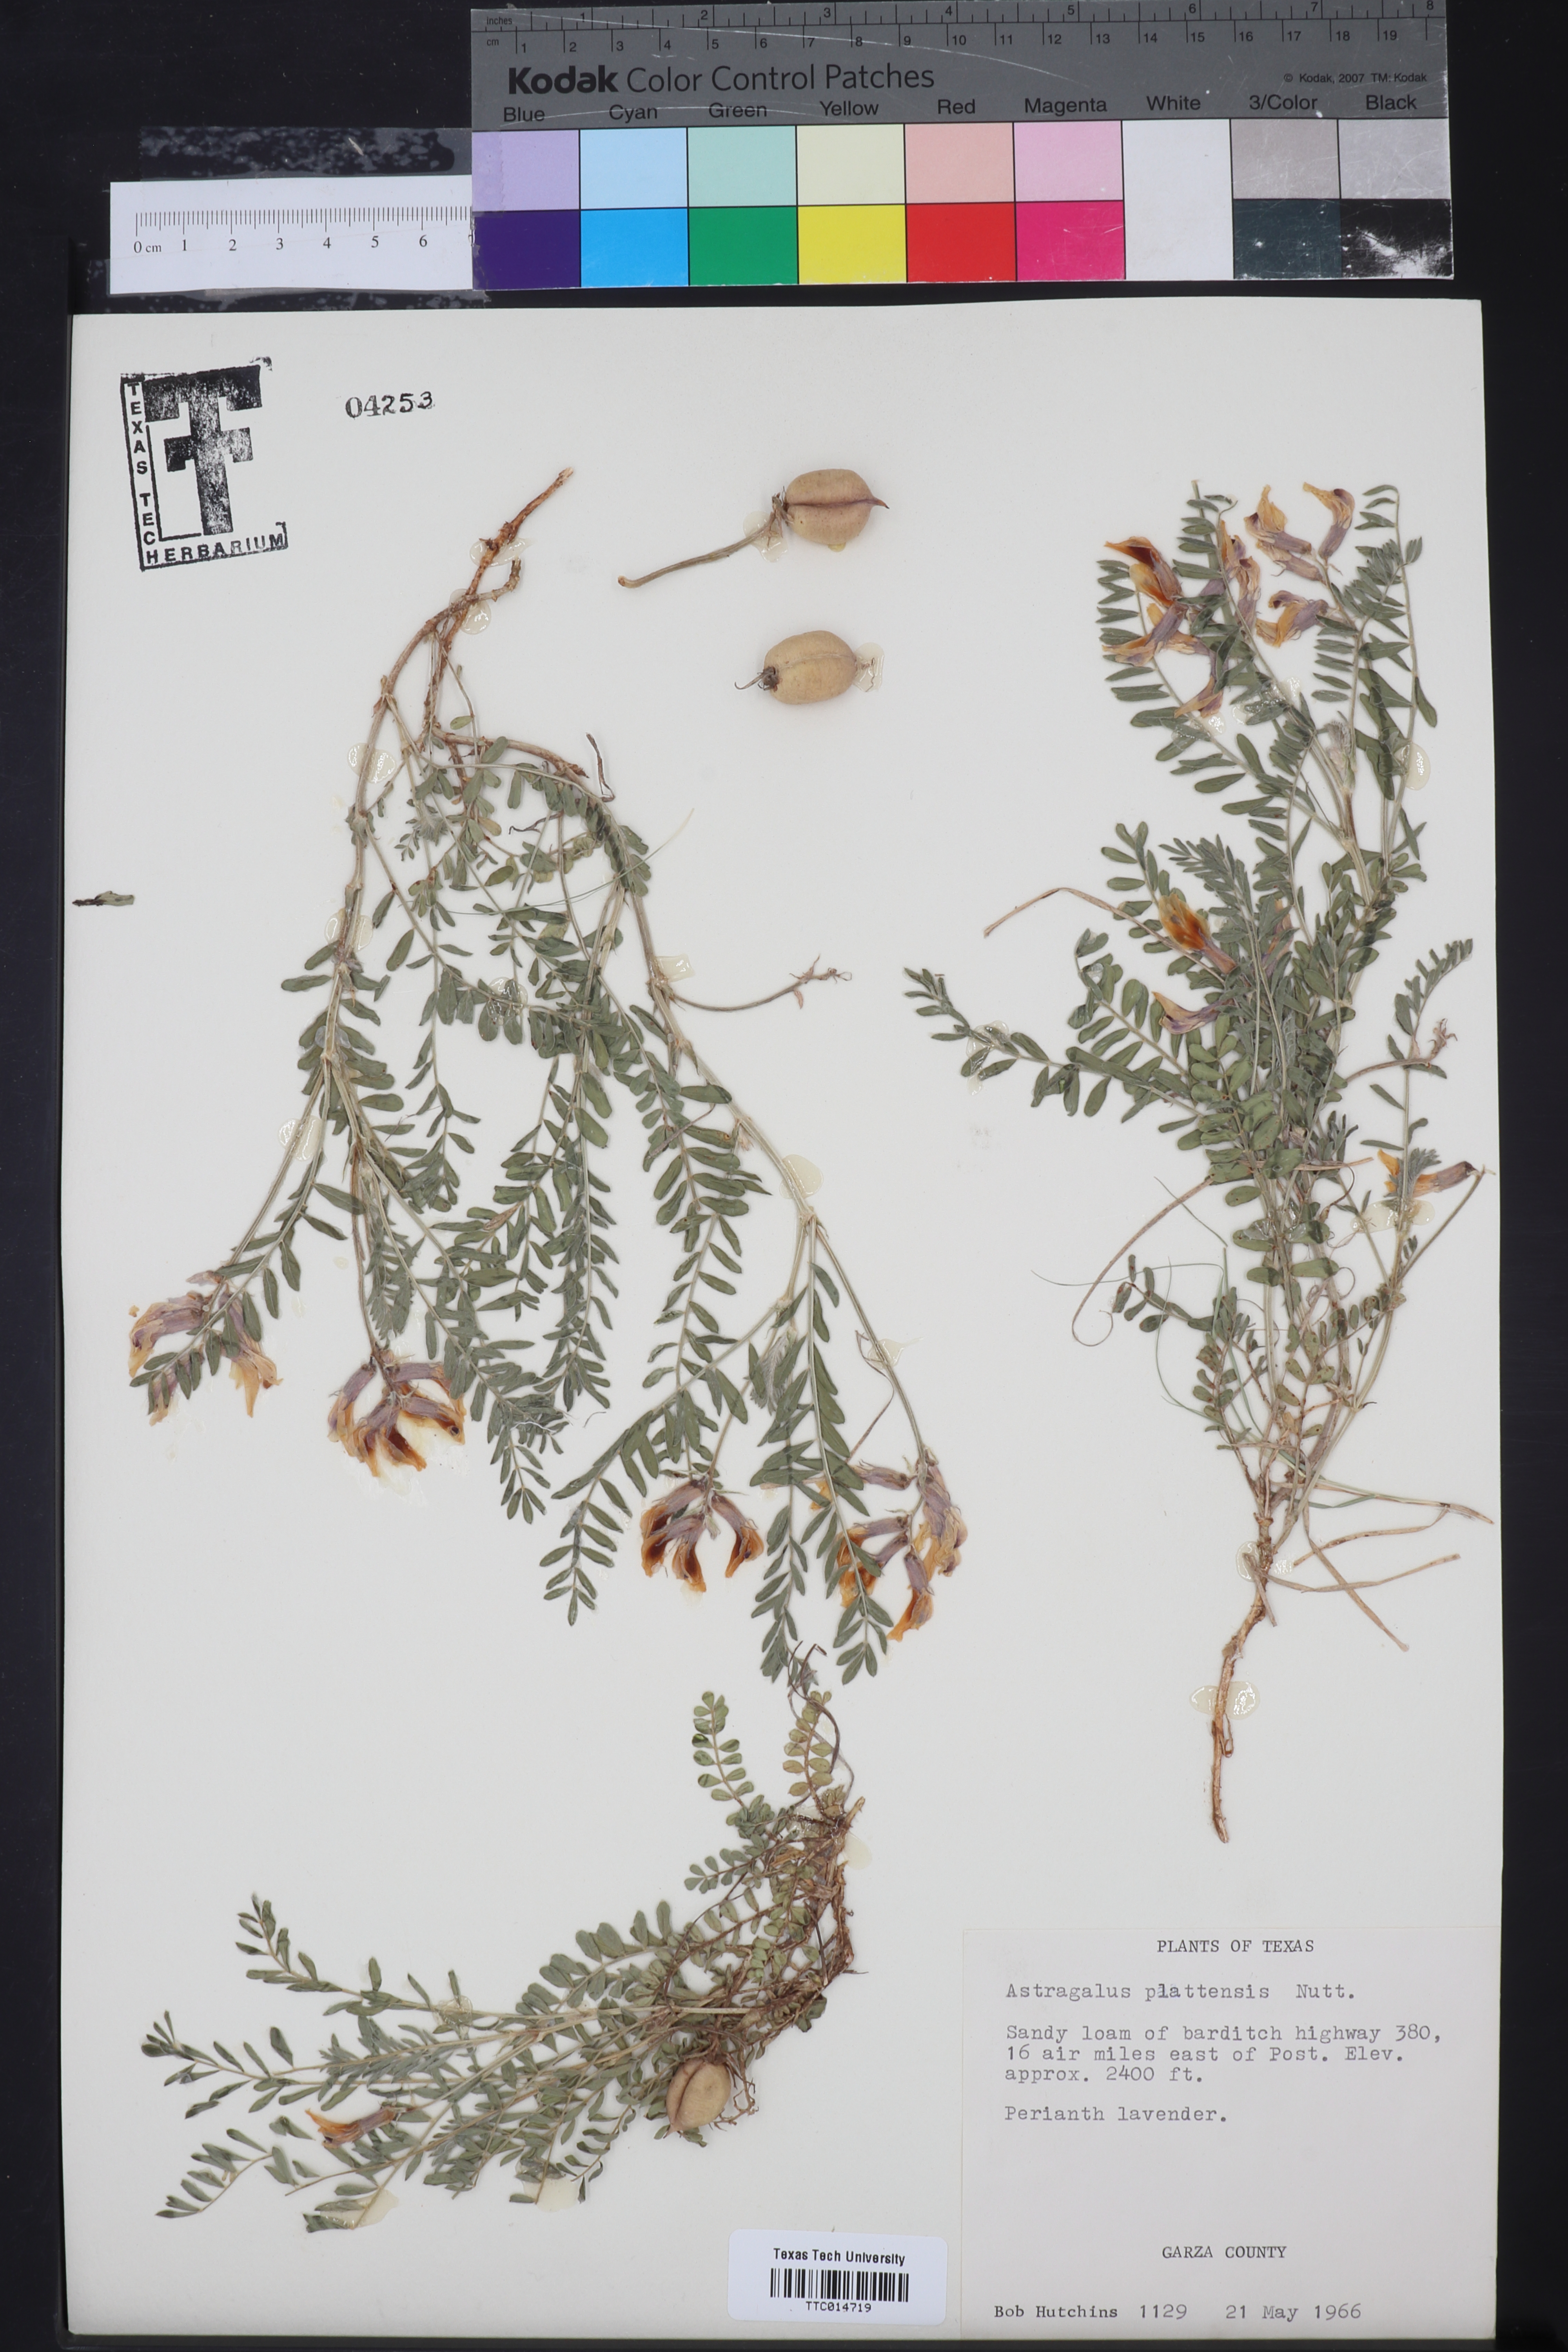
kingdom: Plantae
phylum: Tracheophyta
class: Magnoliopsida
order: Fabales
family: Fabaceae
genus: Astragalus
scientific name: Astragalus plattensis
